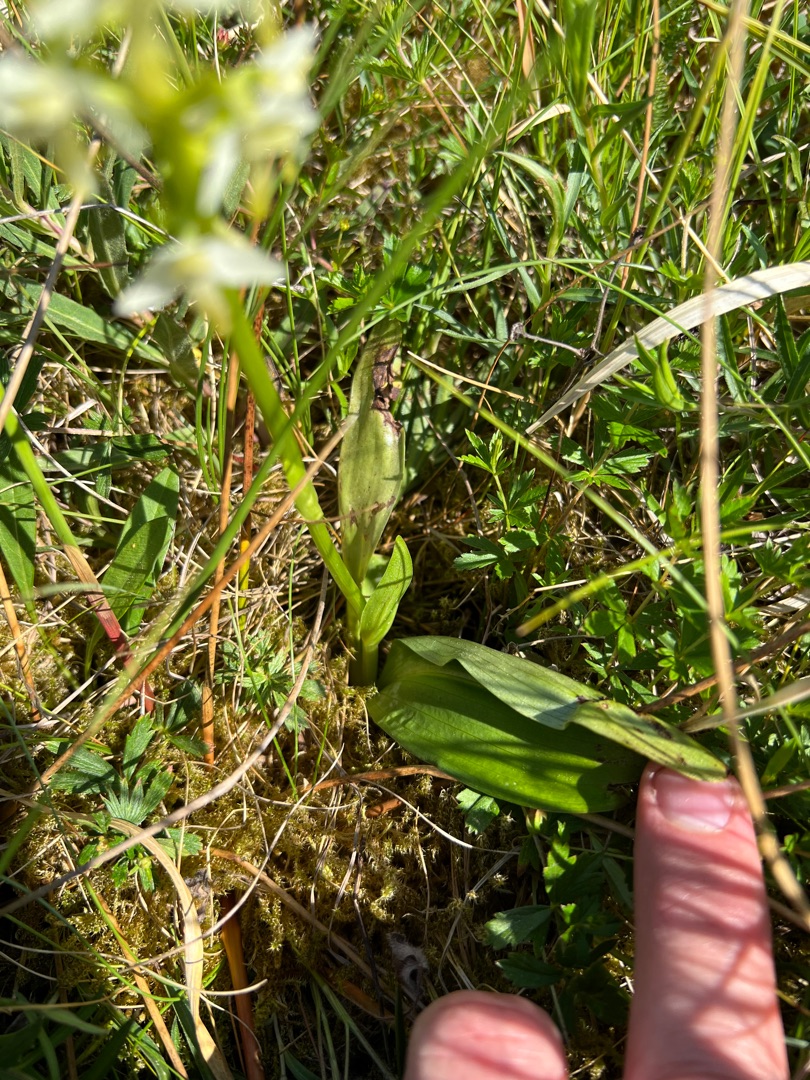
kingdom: Plantae
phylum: Tracheophyta
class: Liliopsida
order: Asparagales
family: Orchidaceae
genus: Platanthera
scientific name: Platanthera bifolia
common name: Bakke-gøgelilje
